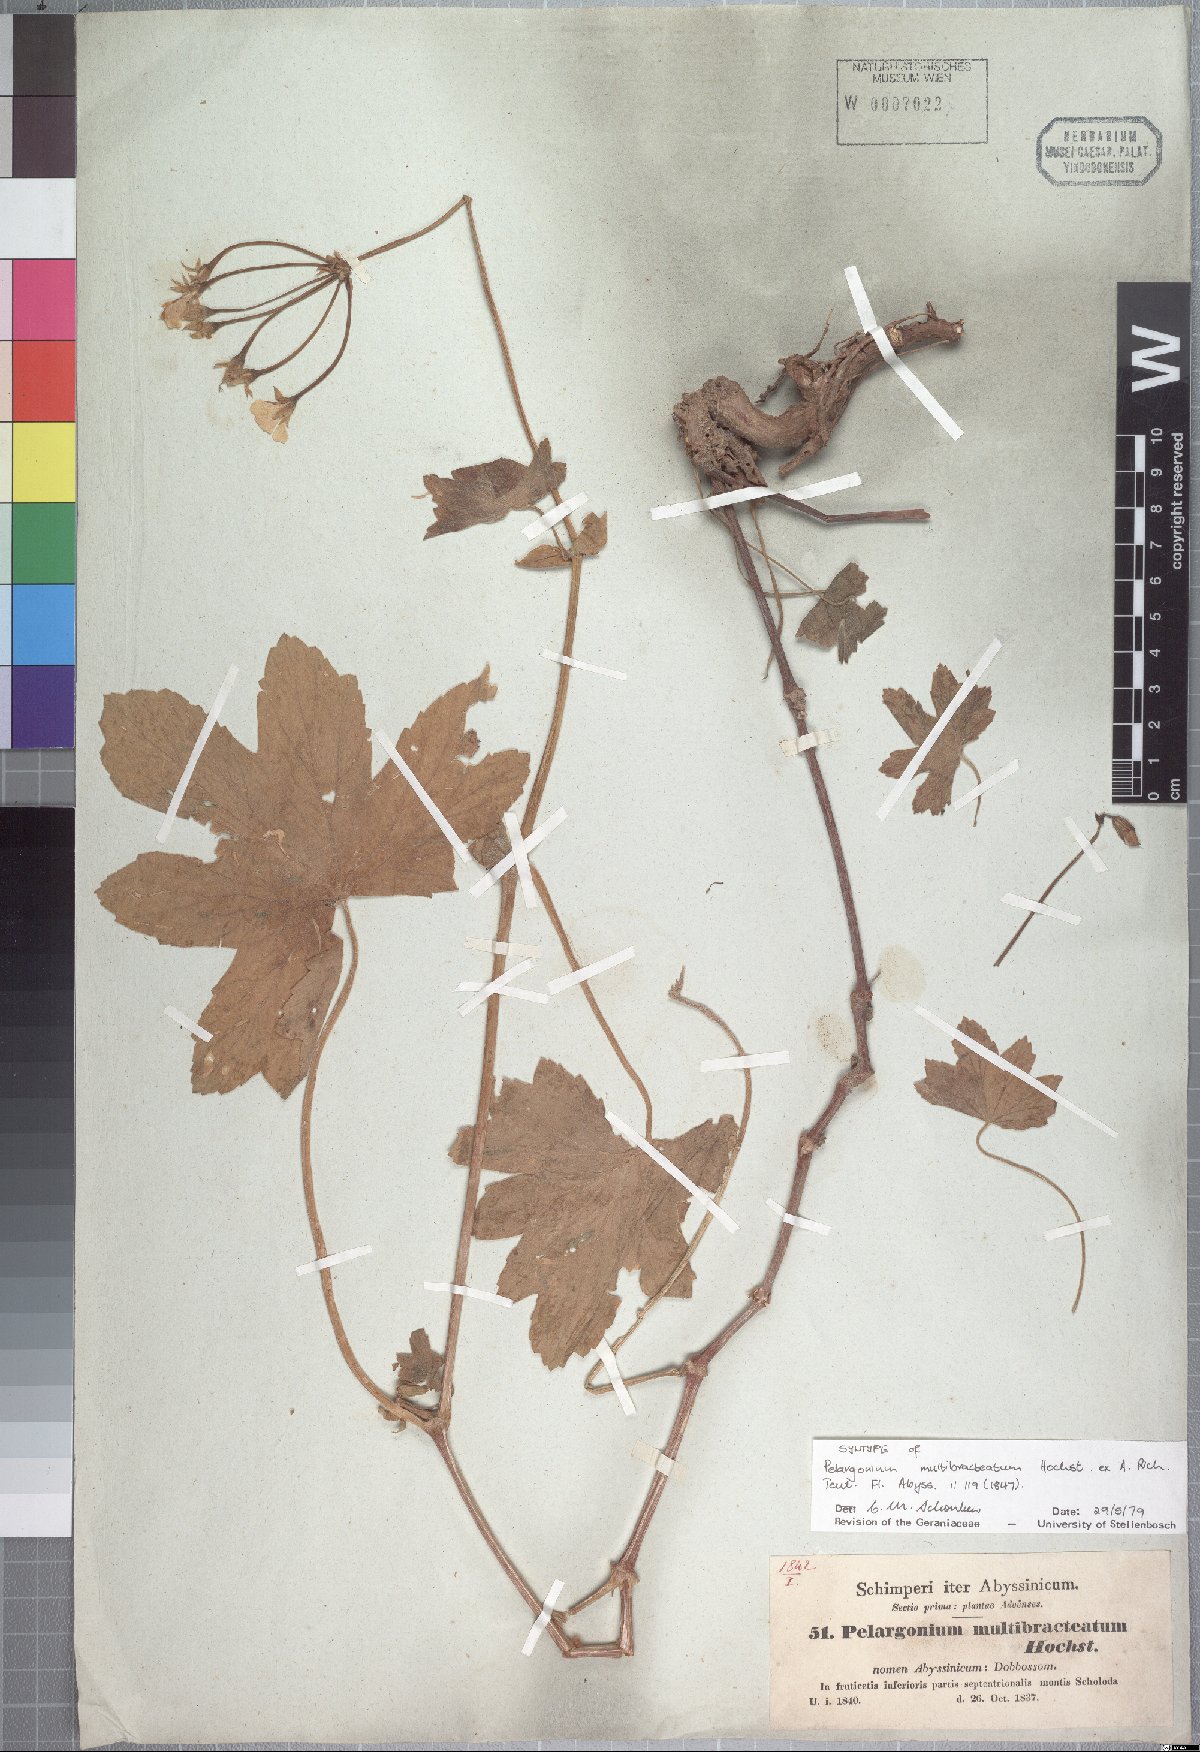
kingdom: Plantae
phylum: Tracheophyta
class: Magnoliopsida
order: Geraniales
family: Geraniaceae
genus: Pelargonium
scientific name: Pelargonium multibracteatum
